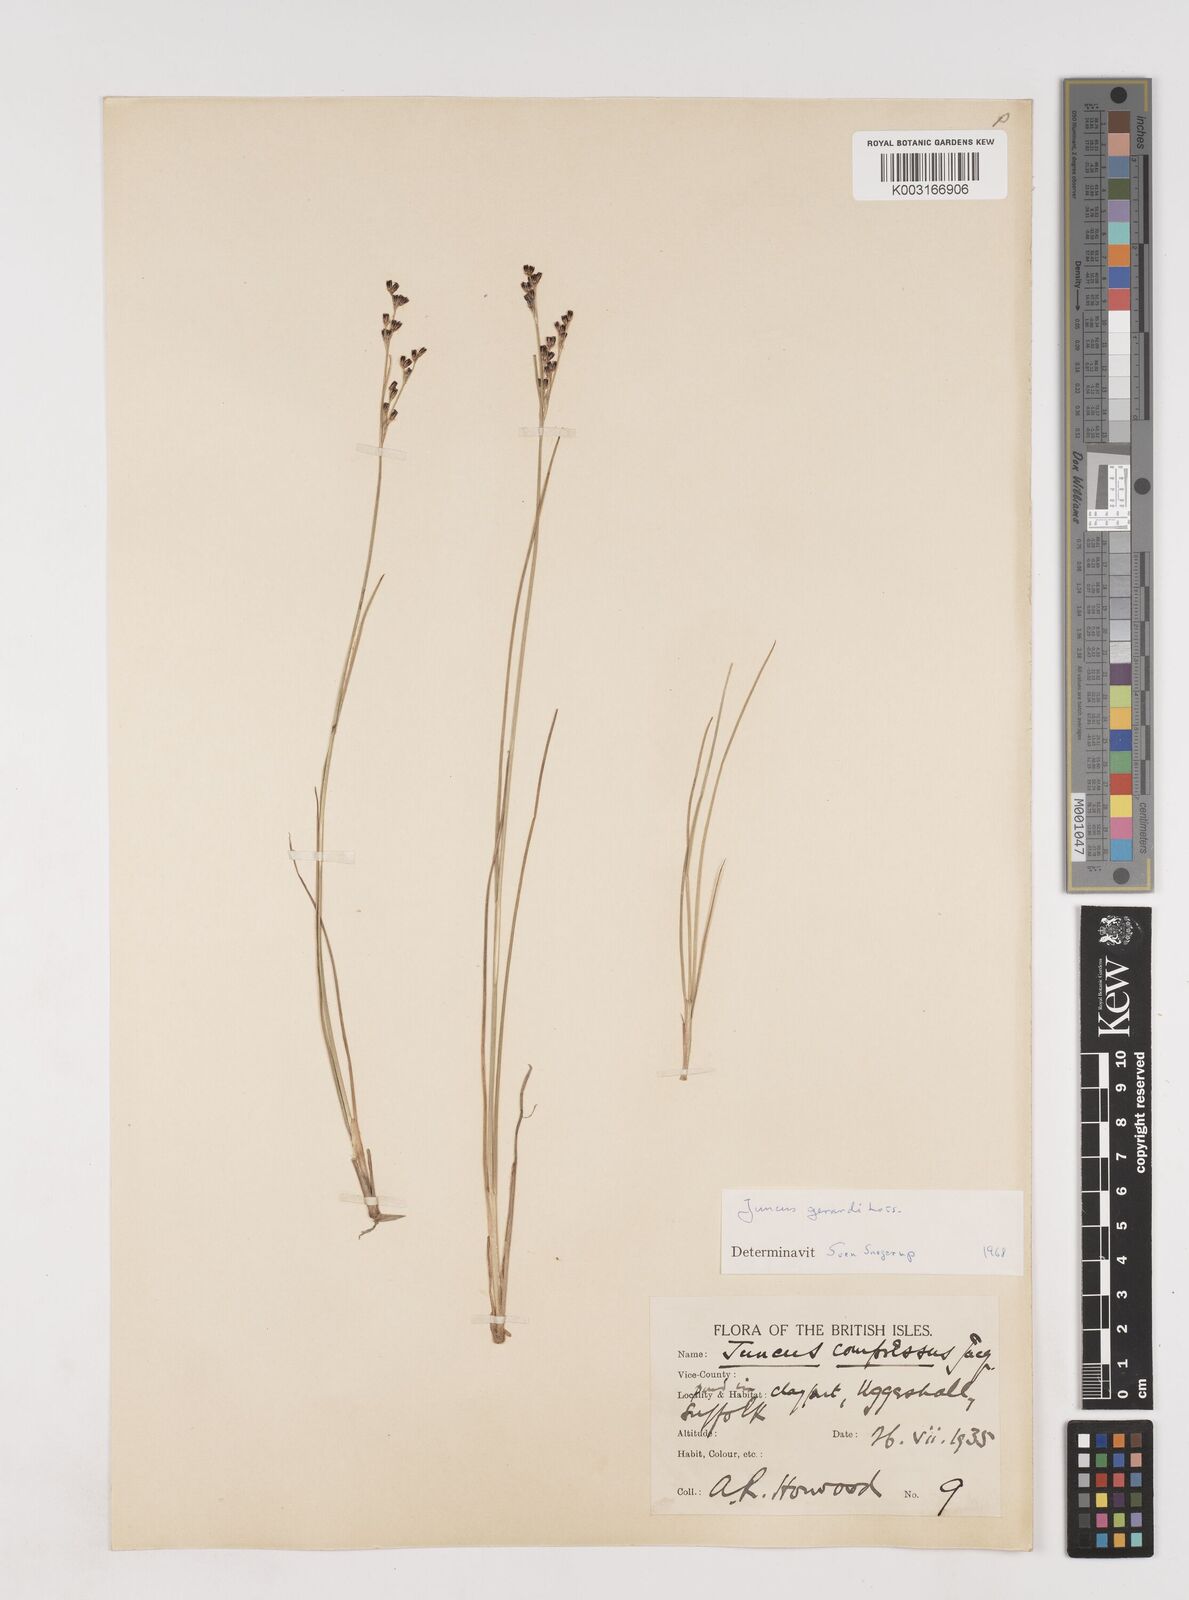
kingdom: Plantae
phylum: Tracheophyta
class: Liliopsida
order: Poales
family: Juncaceae
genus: Juncus
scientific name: Juncus gerardi
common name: Saltmarsh rush
